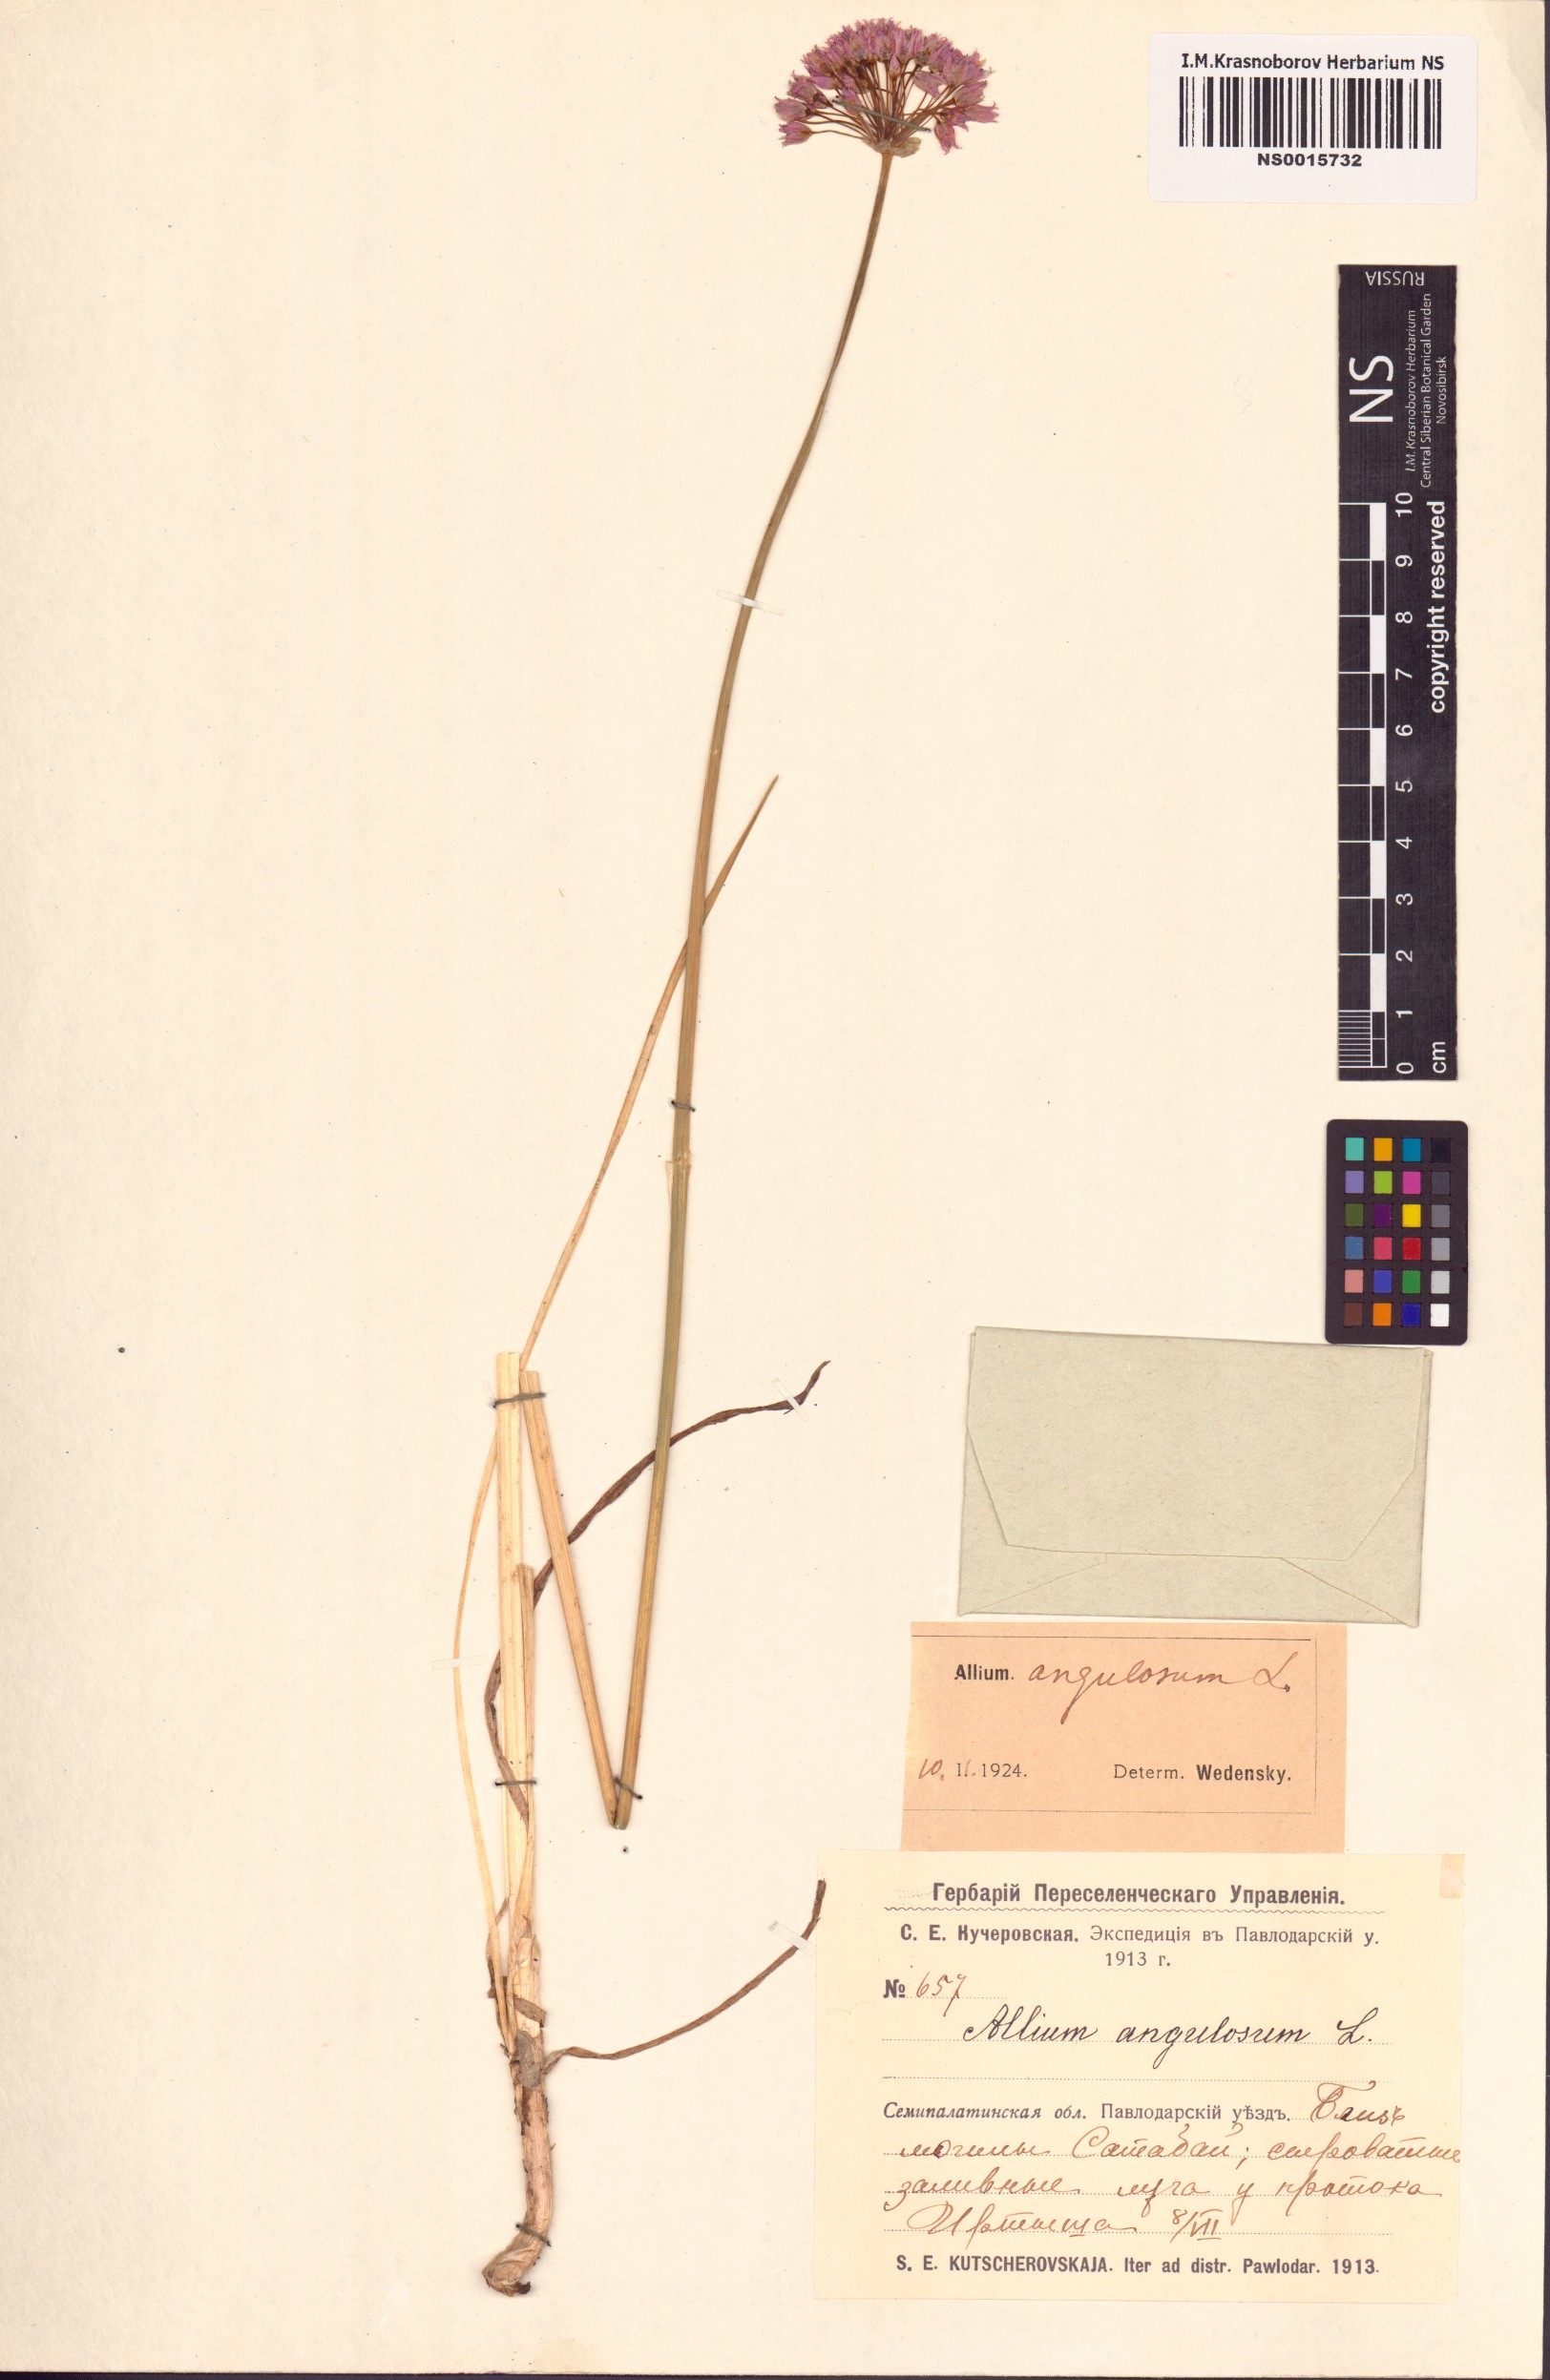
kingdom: Plantae
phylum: Tracheophyta
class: Liliopsida
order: Asparagales
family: Amaryllidaceae
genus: Allium
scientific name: Allium angulosum
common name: Mouse garlic
